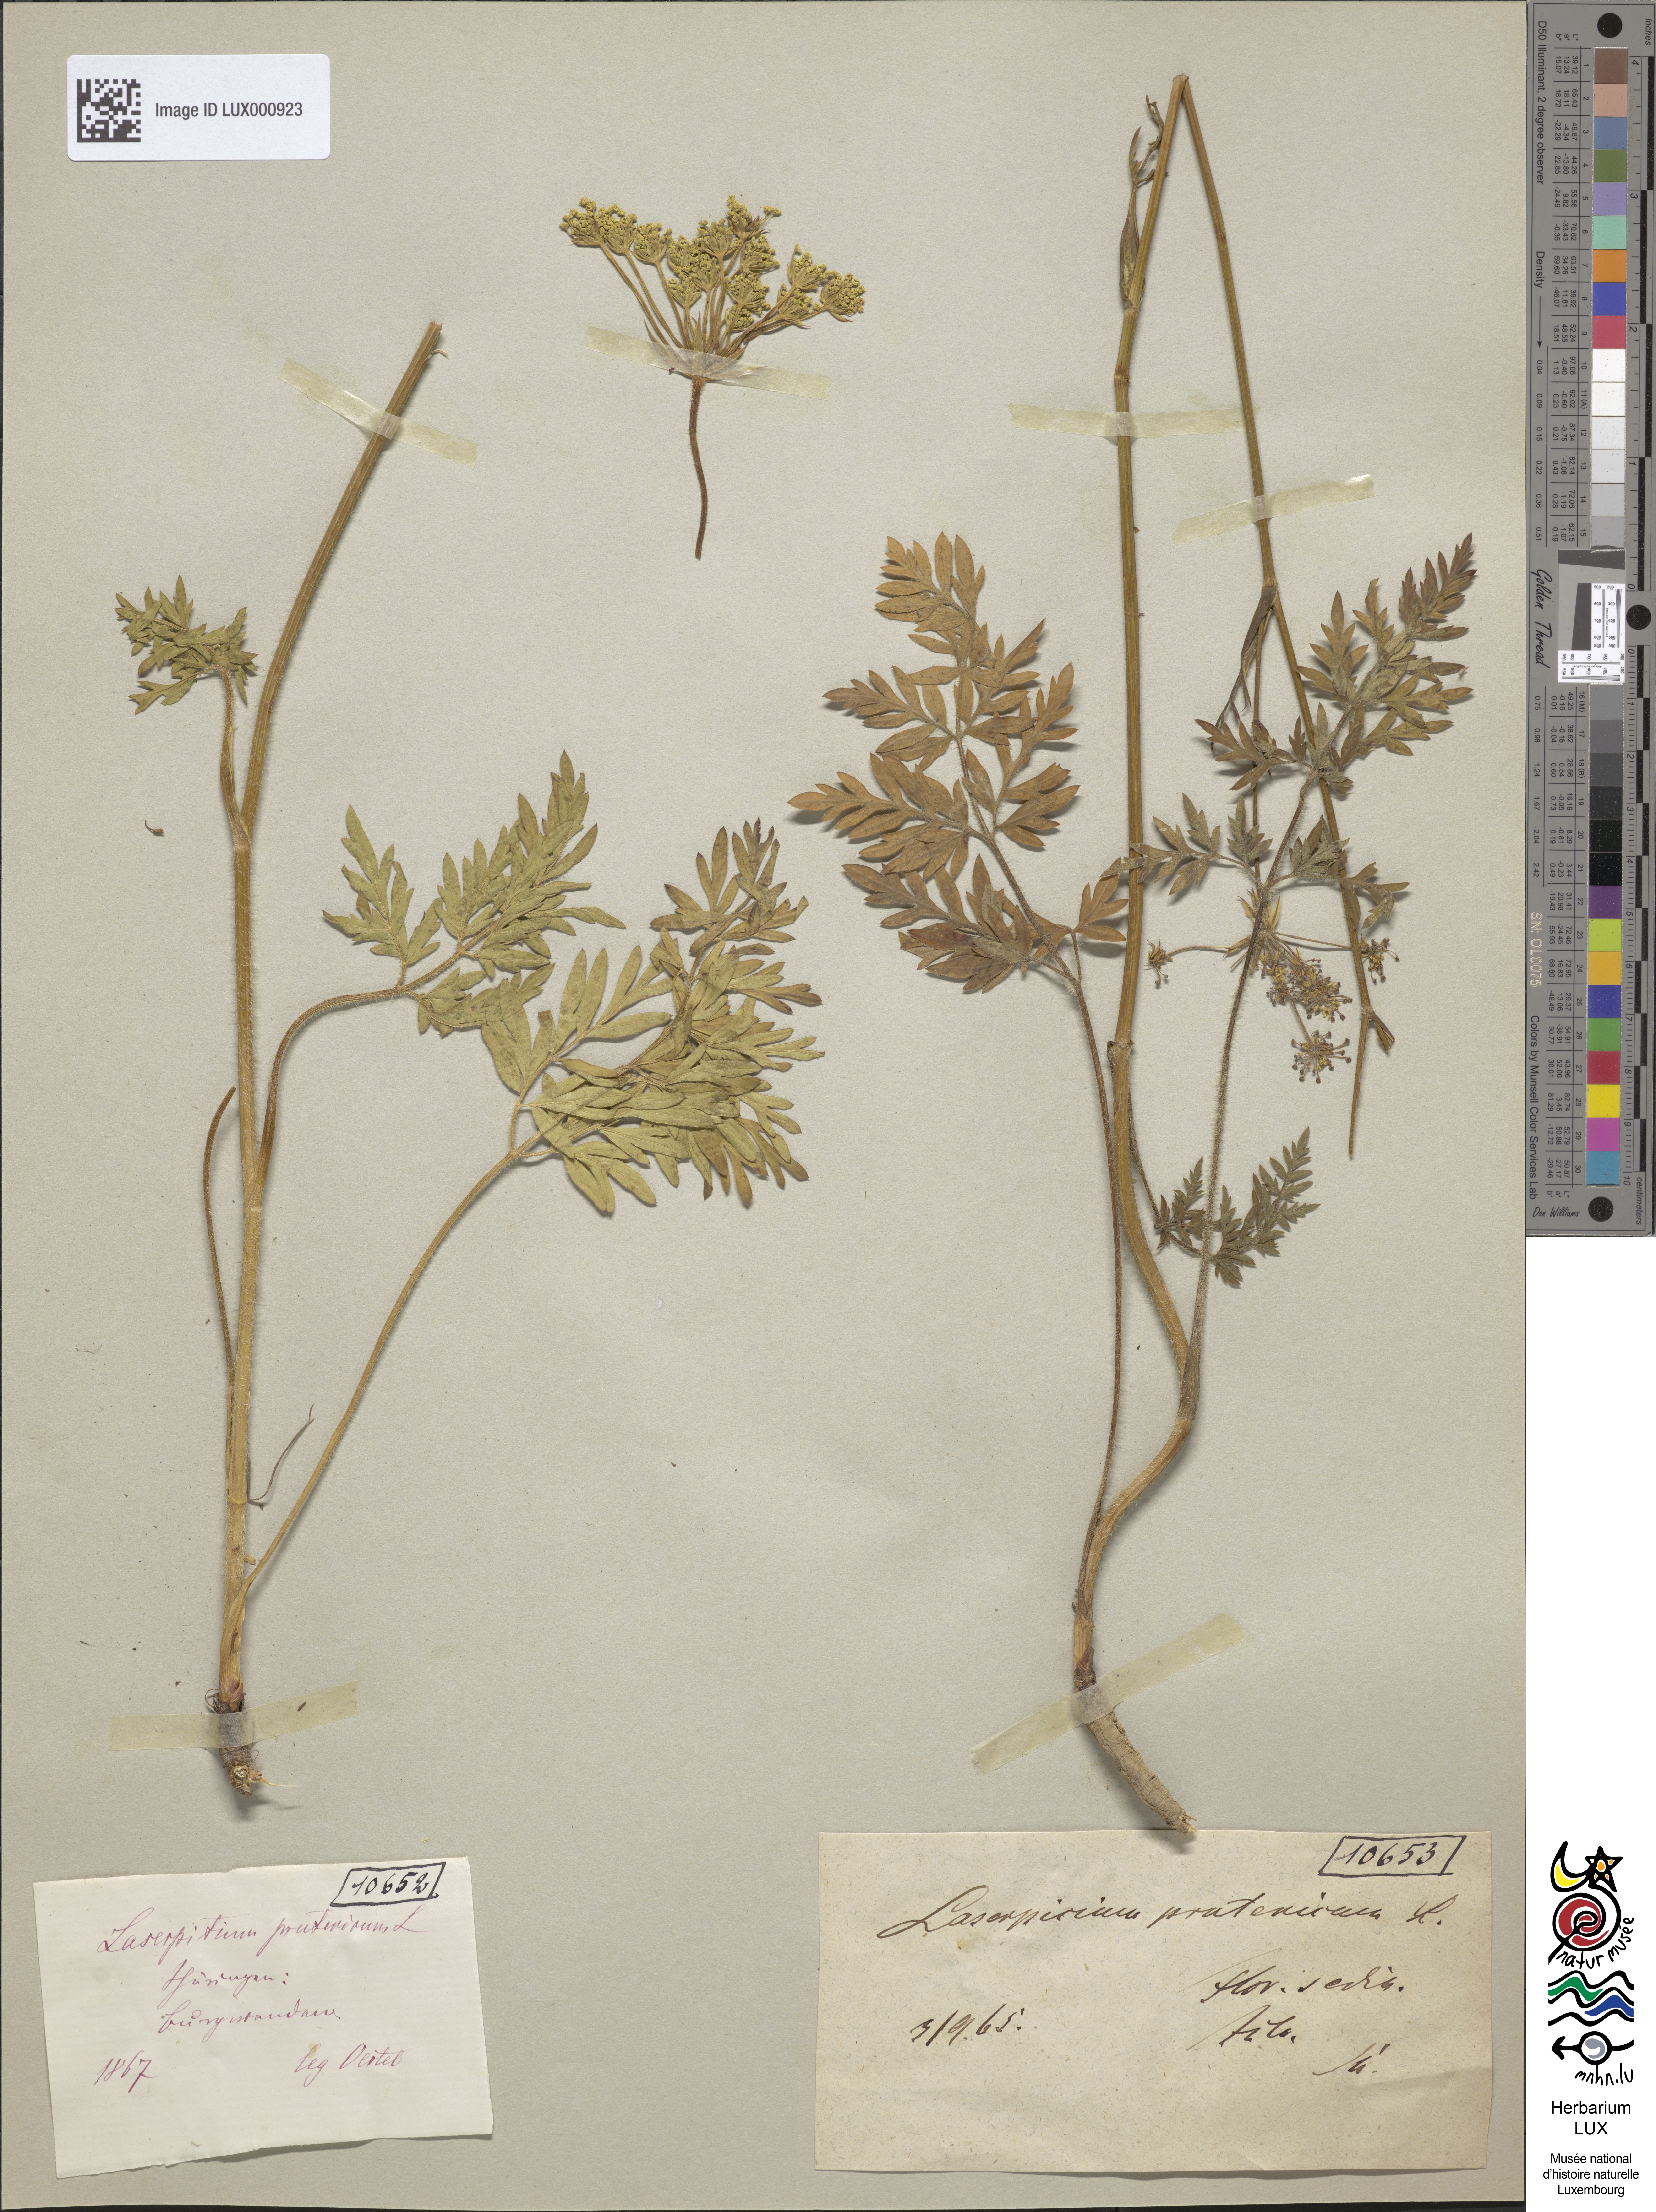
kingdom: Plantae
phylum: Tracheophyta
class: Magnoliopsida
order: Apiales
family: Apiaceae
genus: Silphiodaucus
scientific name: Silphiodaucus prutenicus
